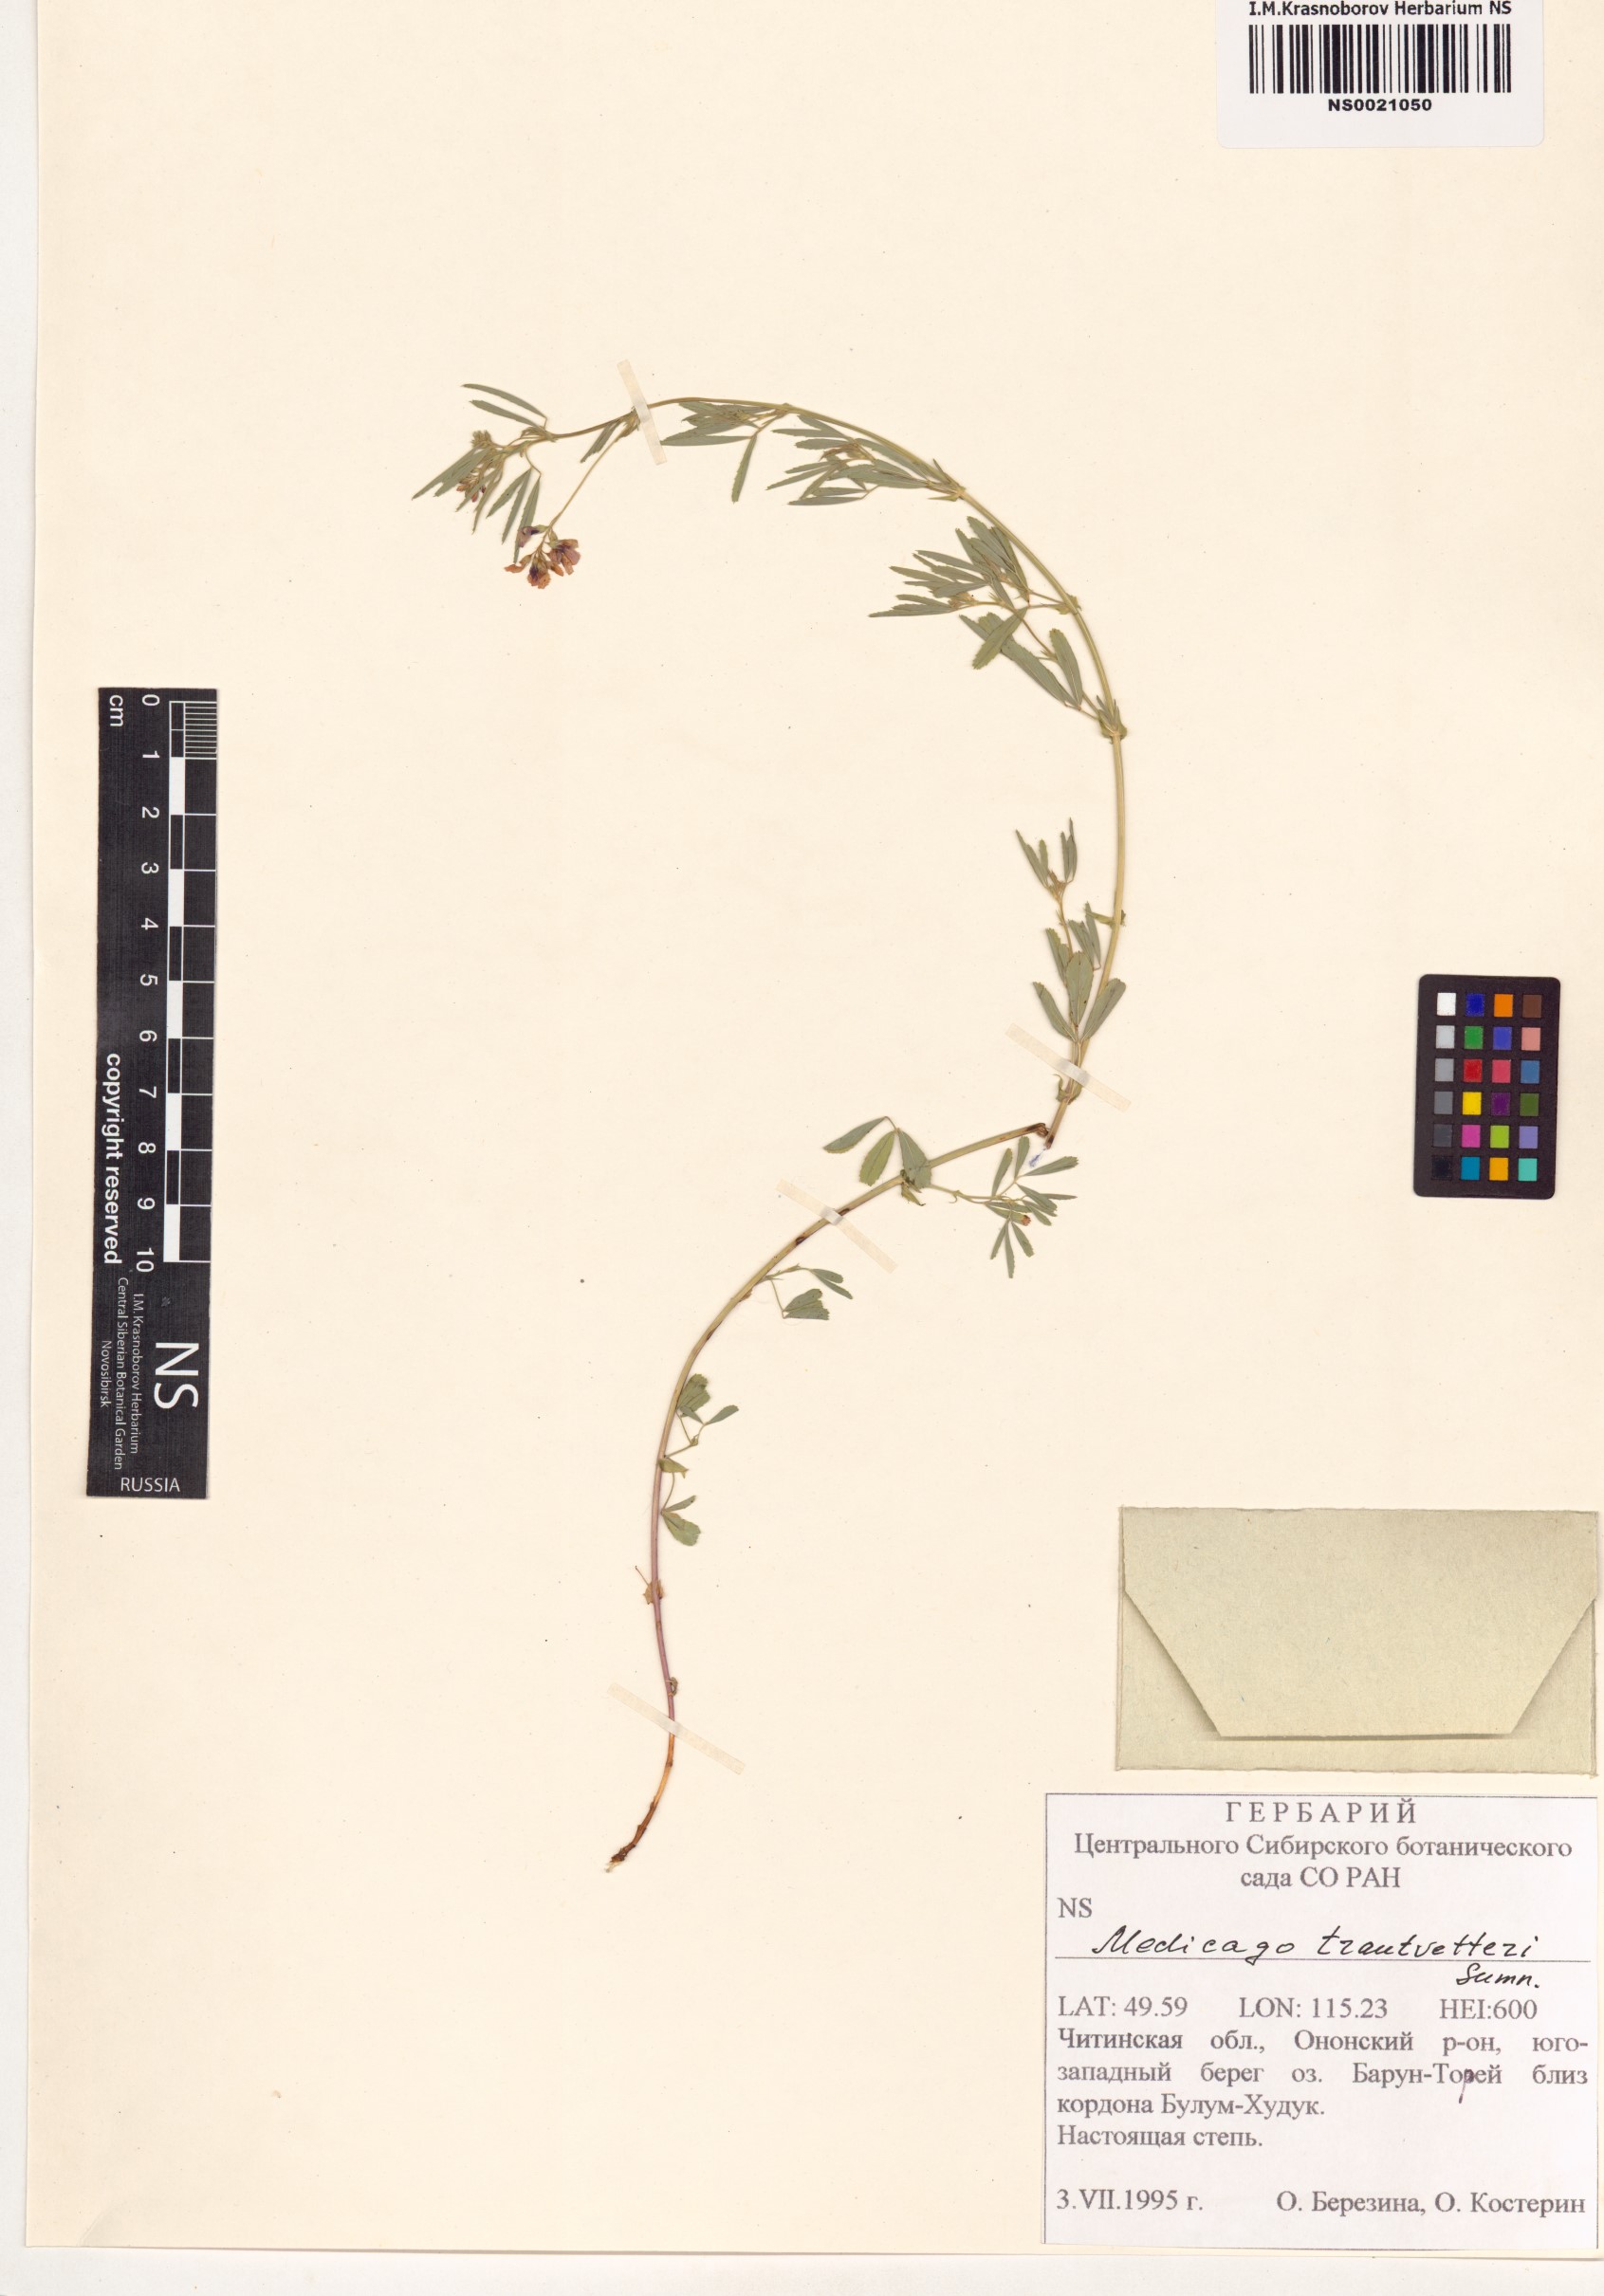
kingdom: Plantae
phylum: Tracheophyta
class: Magnoliopsida
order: Fabales
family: Fabaceae
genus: Medicago
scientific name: Medicago varia
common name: Sand lucerne
